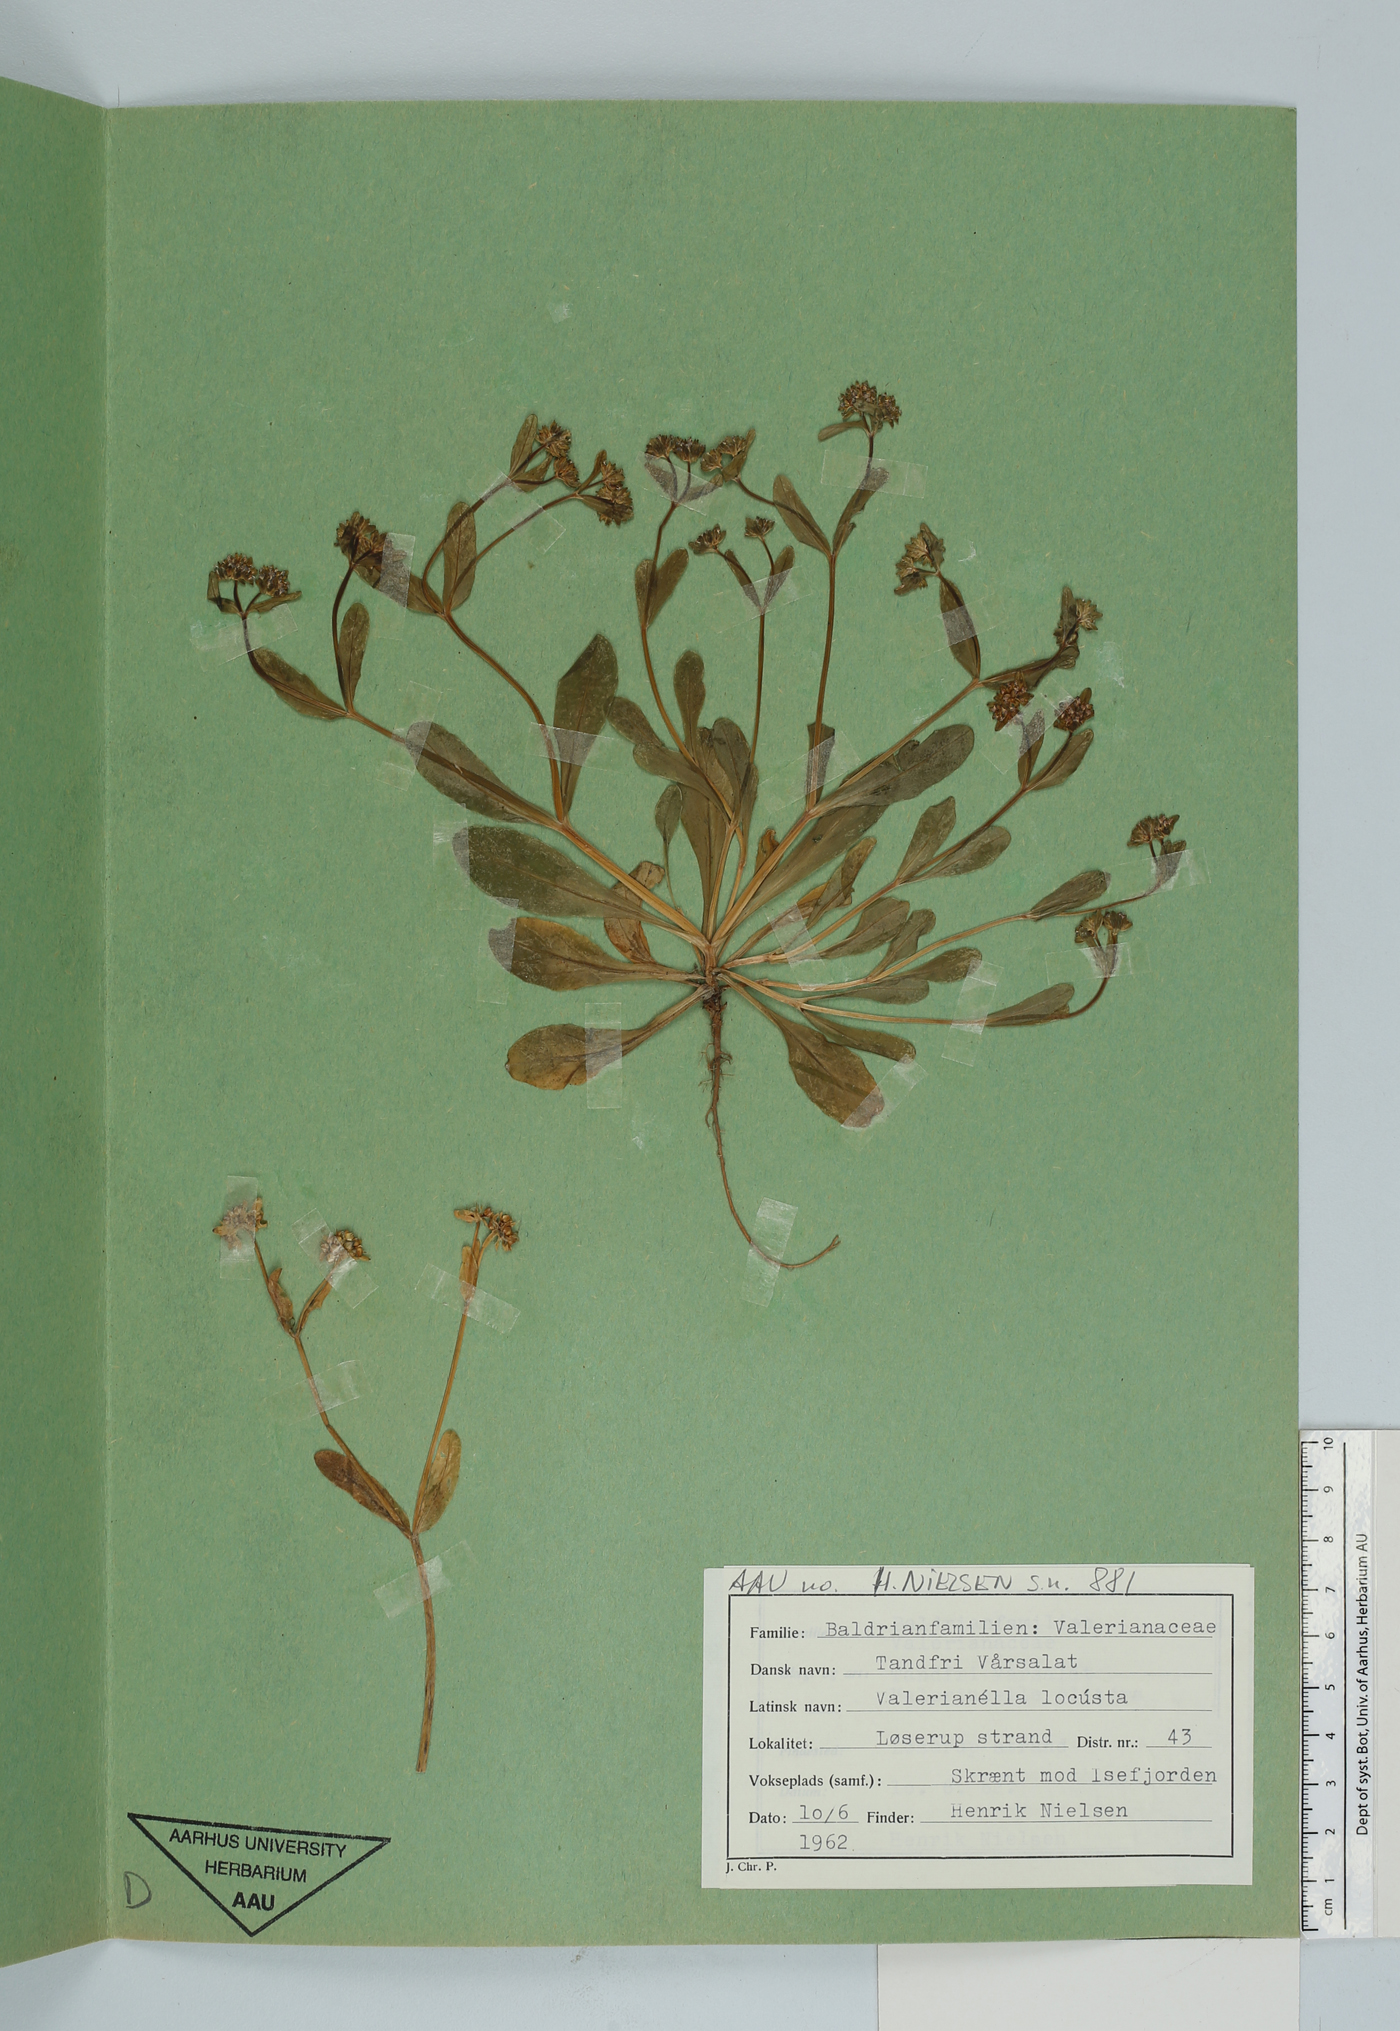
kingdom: Plantae
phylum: Tracheophyta
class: Magnoliopsida
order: Dipsacales
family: Caprifoliaceae
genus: Valerianella
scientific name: Valerianella locusta
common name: Common cornsalad
